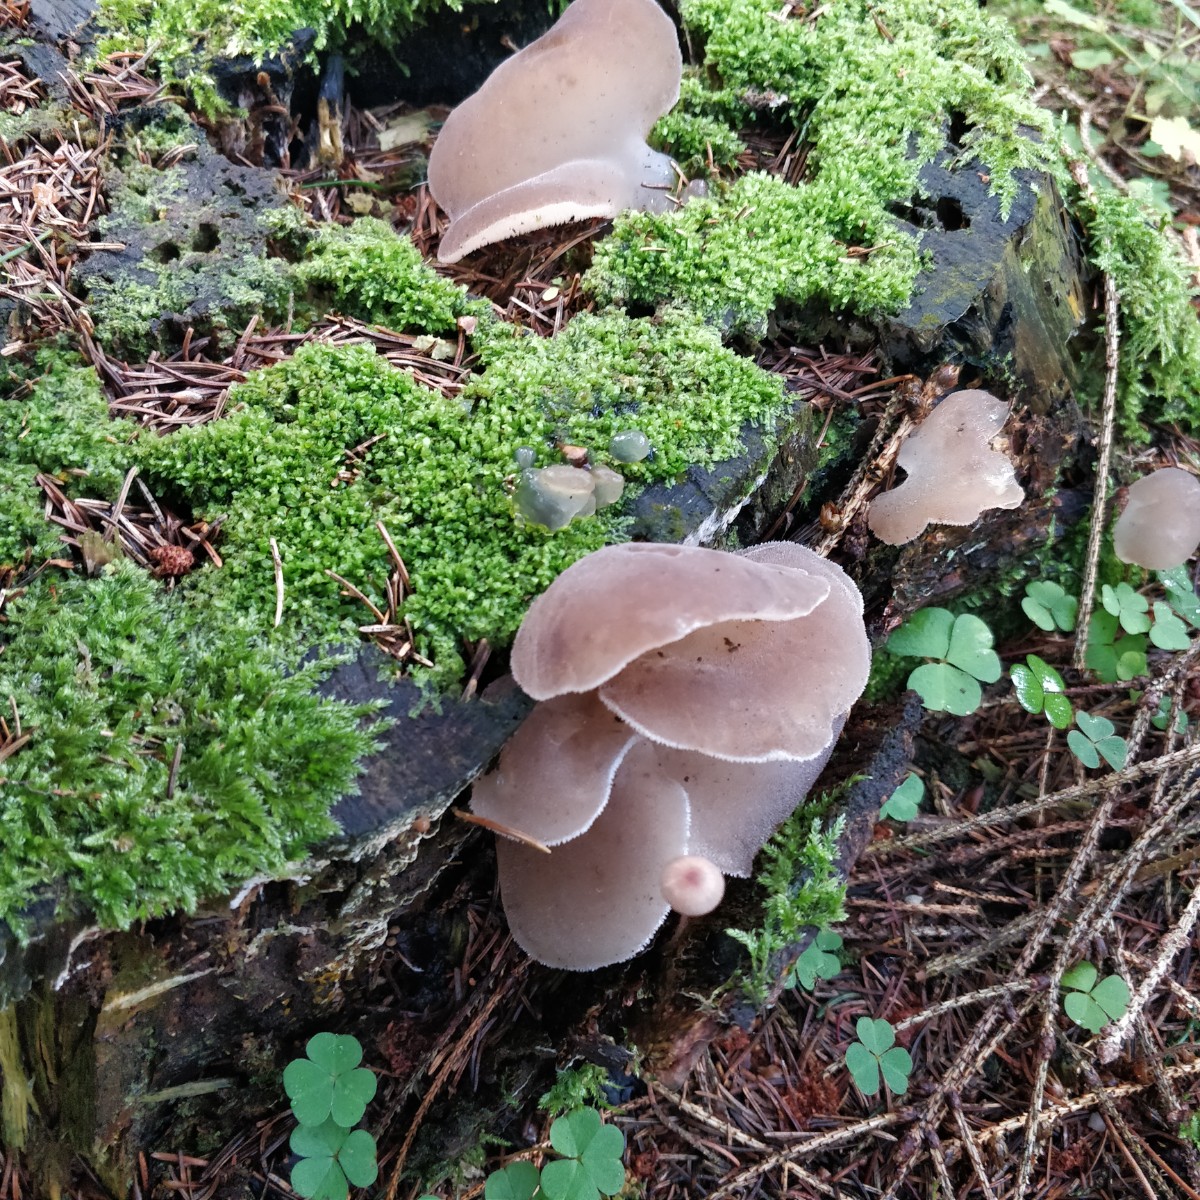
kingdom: Fungi
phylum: Basidiomycota
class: Agaricomycetes
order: Auriculariales
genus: Pseudohydnum
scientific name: Pseudohydnum gelatinosum
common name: bævretand
